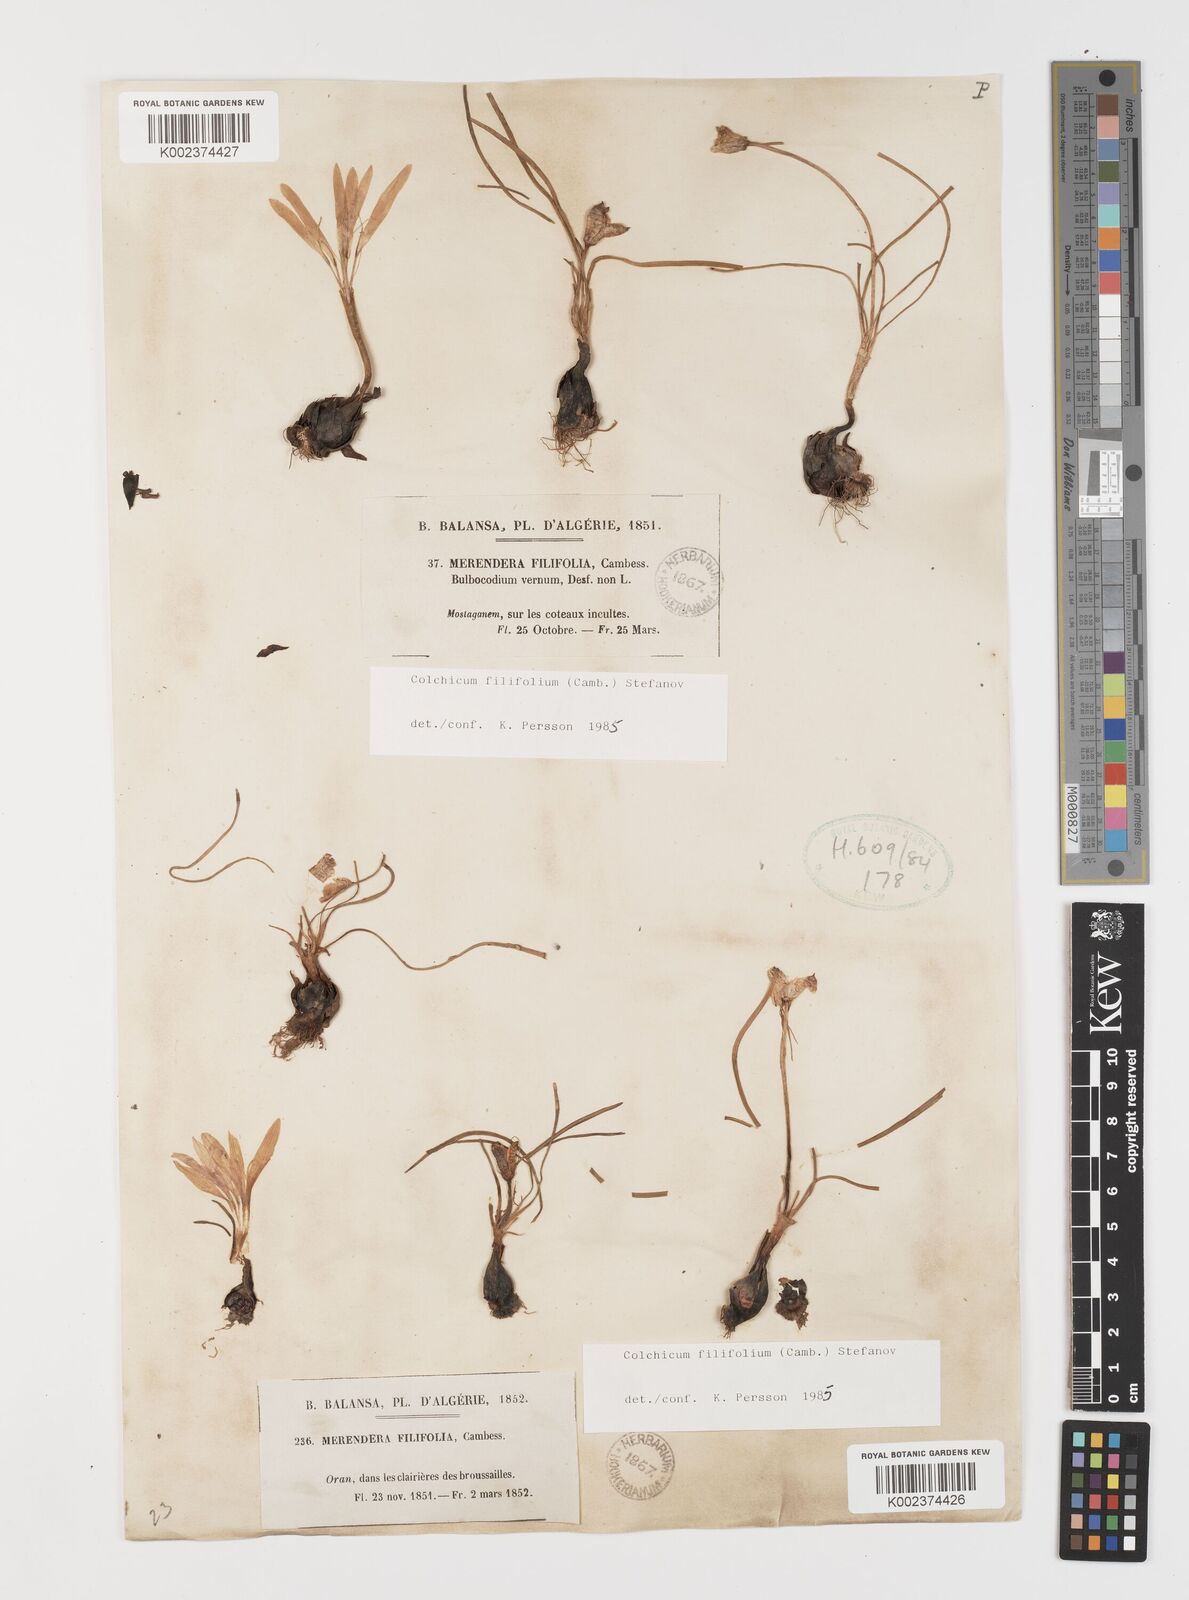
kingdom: Plantae
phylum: Tracheophyta
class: Liliopsida
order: Liliales
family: Colchicaceae
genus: Colchicum
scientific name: Colchicum filifolium
